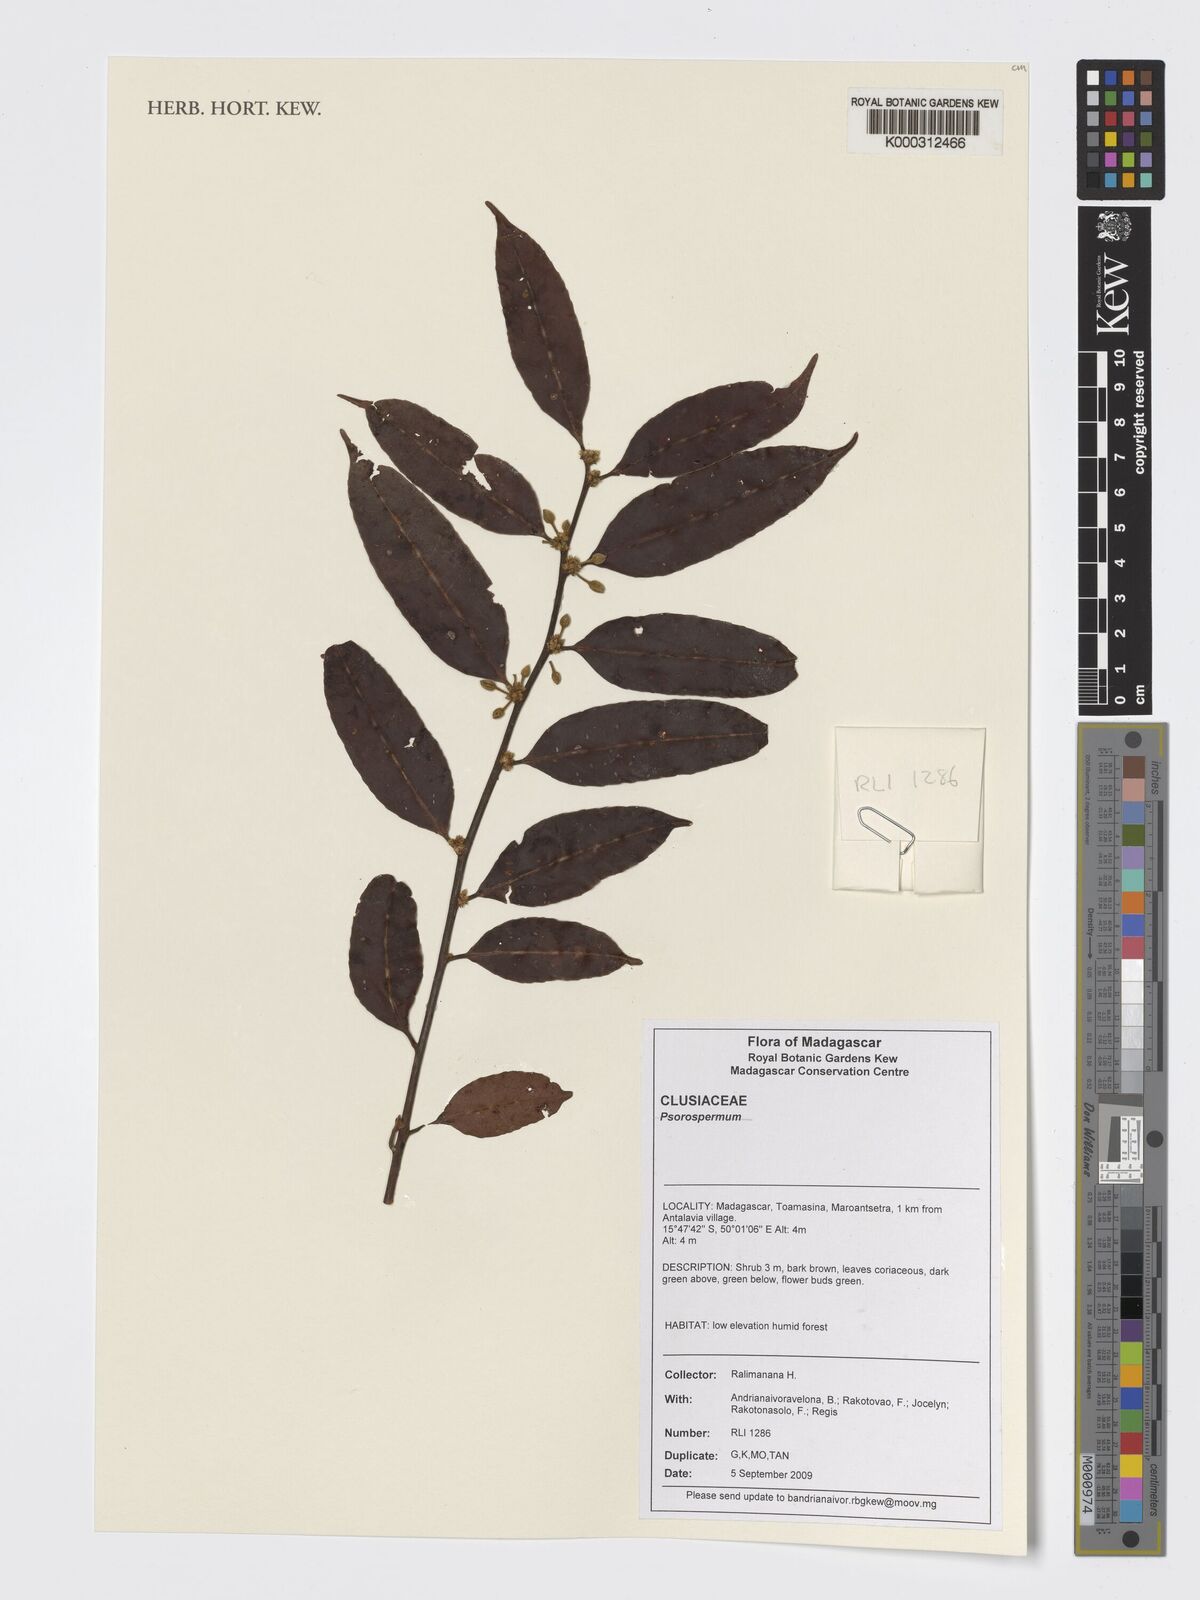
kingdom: Plantae
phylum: Tracheophyta
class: Magnoliopsida
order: Malpighiales
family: Hypericaceae
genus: Psorospermum
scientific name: Psorospermum
